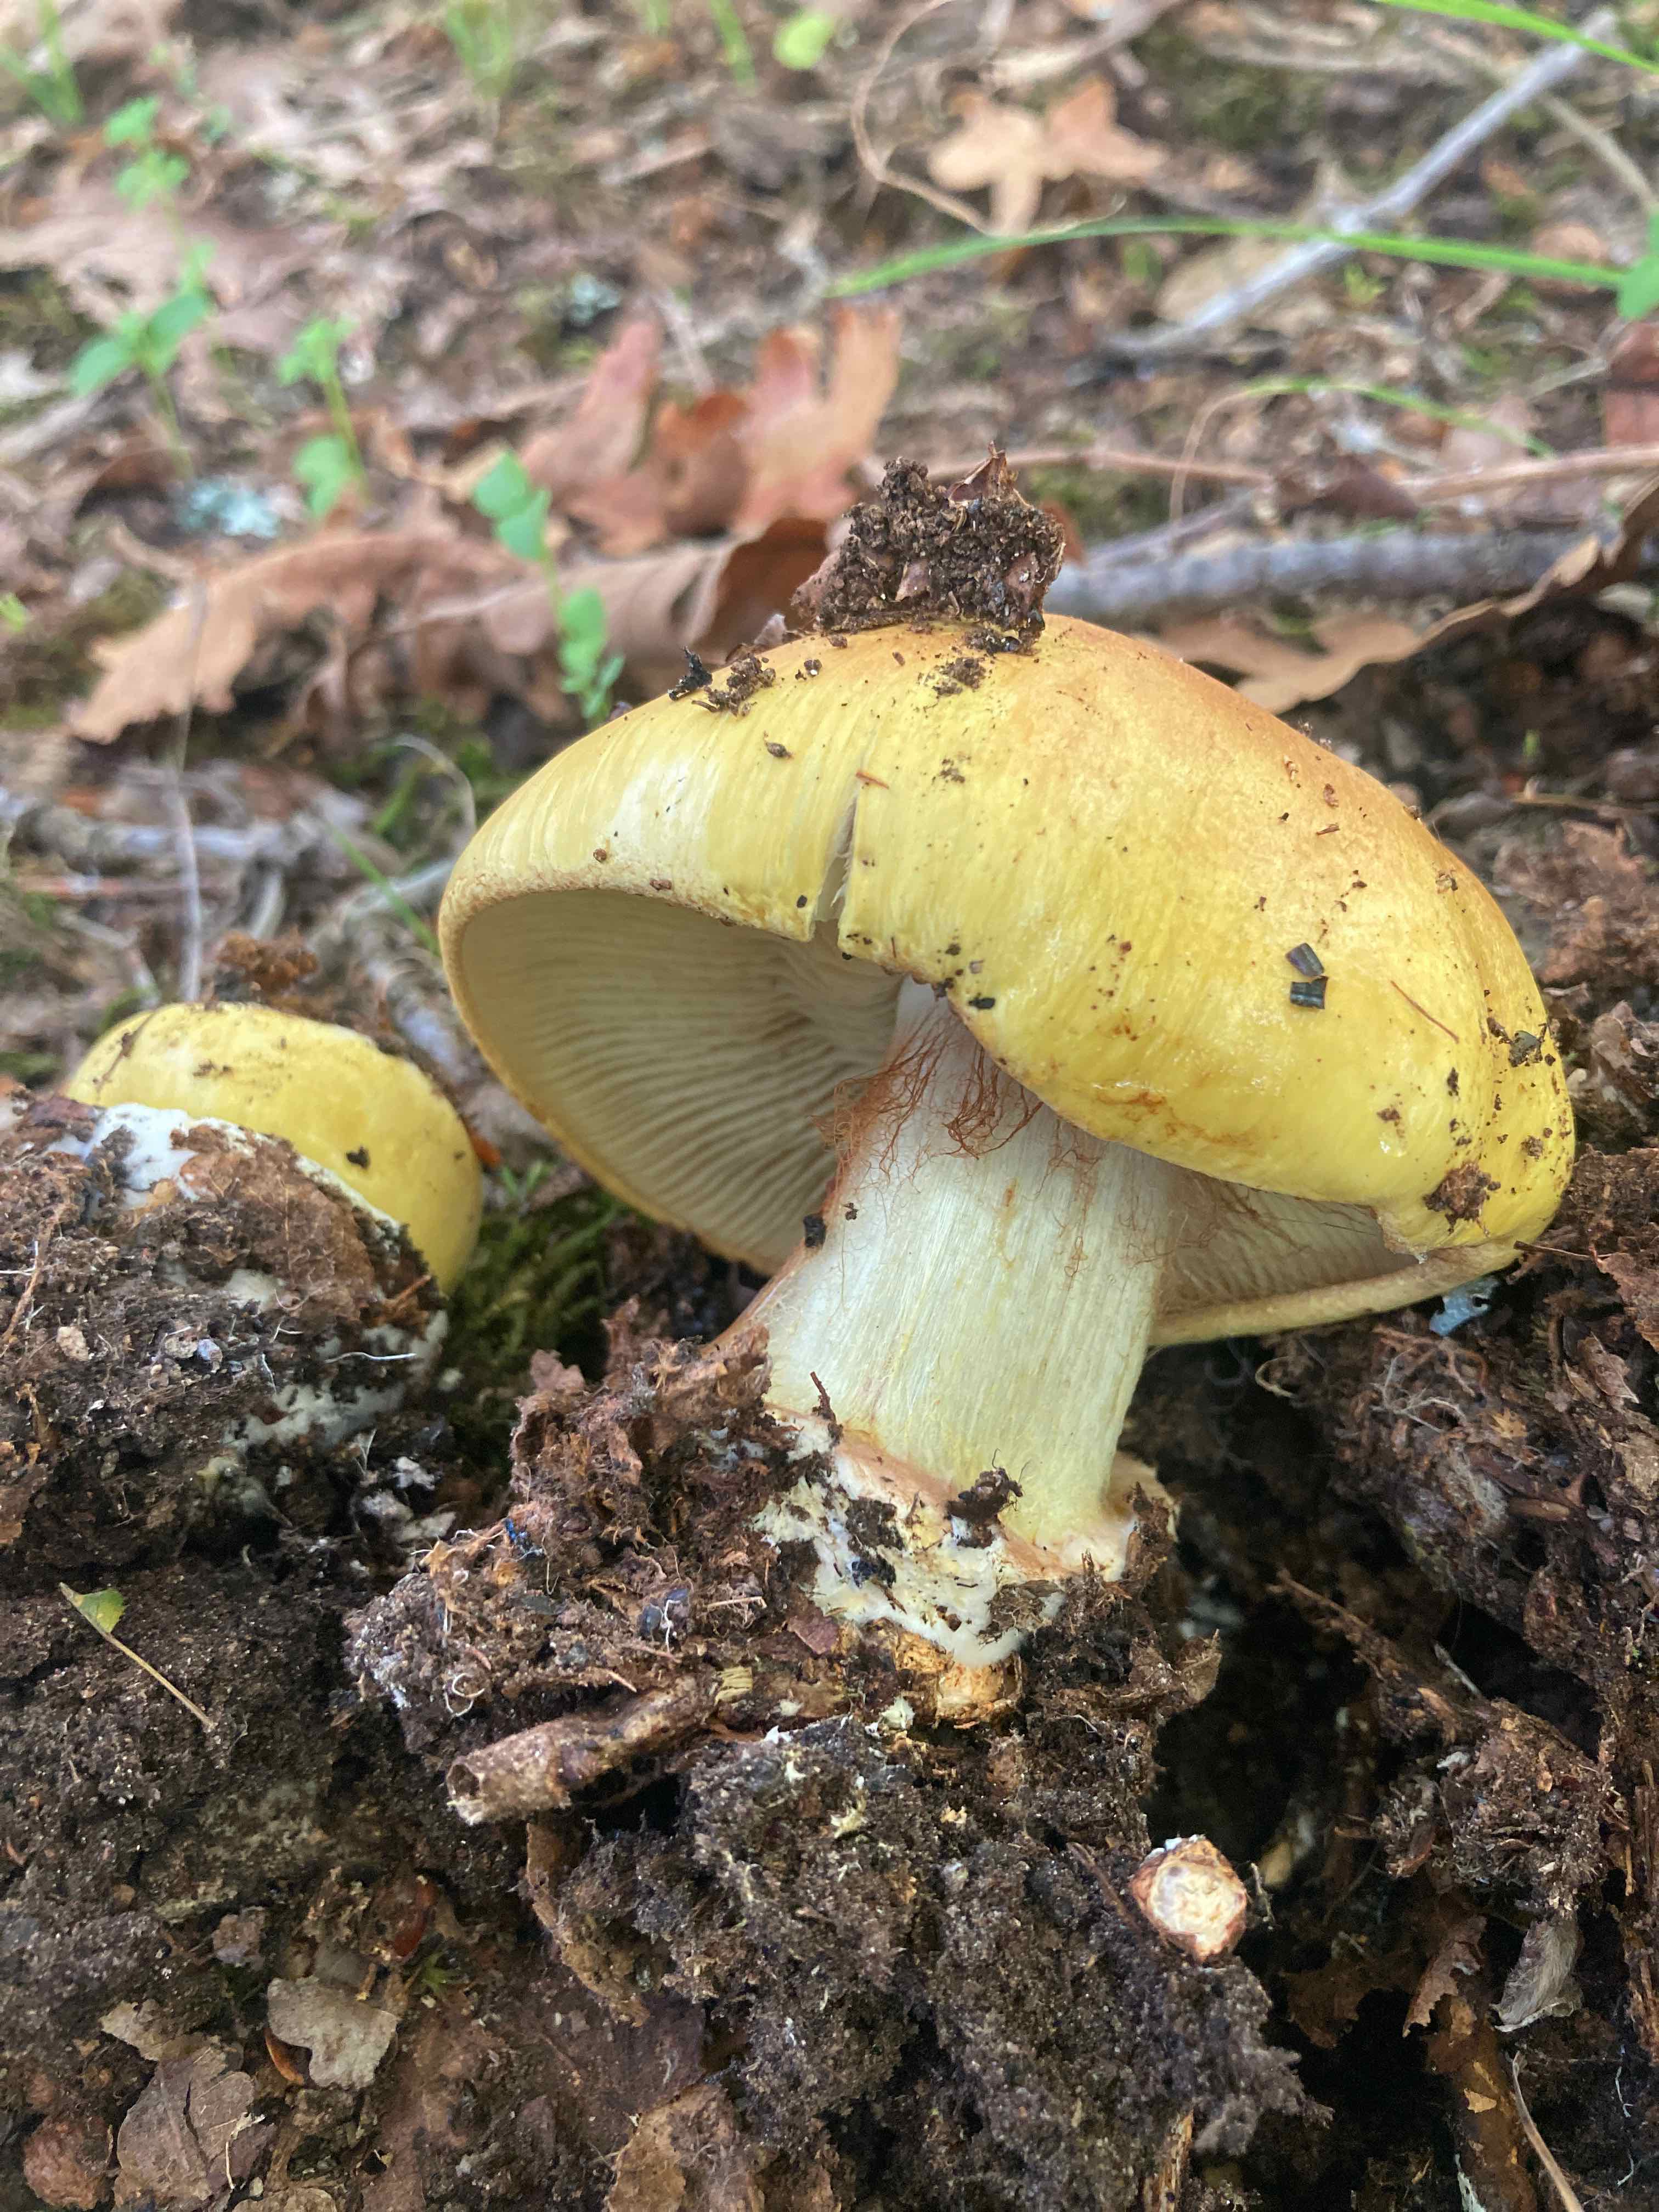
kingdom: Fungi
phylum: Basidiomycota
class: Agaricomycetes
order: Agaricales
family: Cortinariaceae
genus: Calonarius
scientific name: Calonarius
